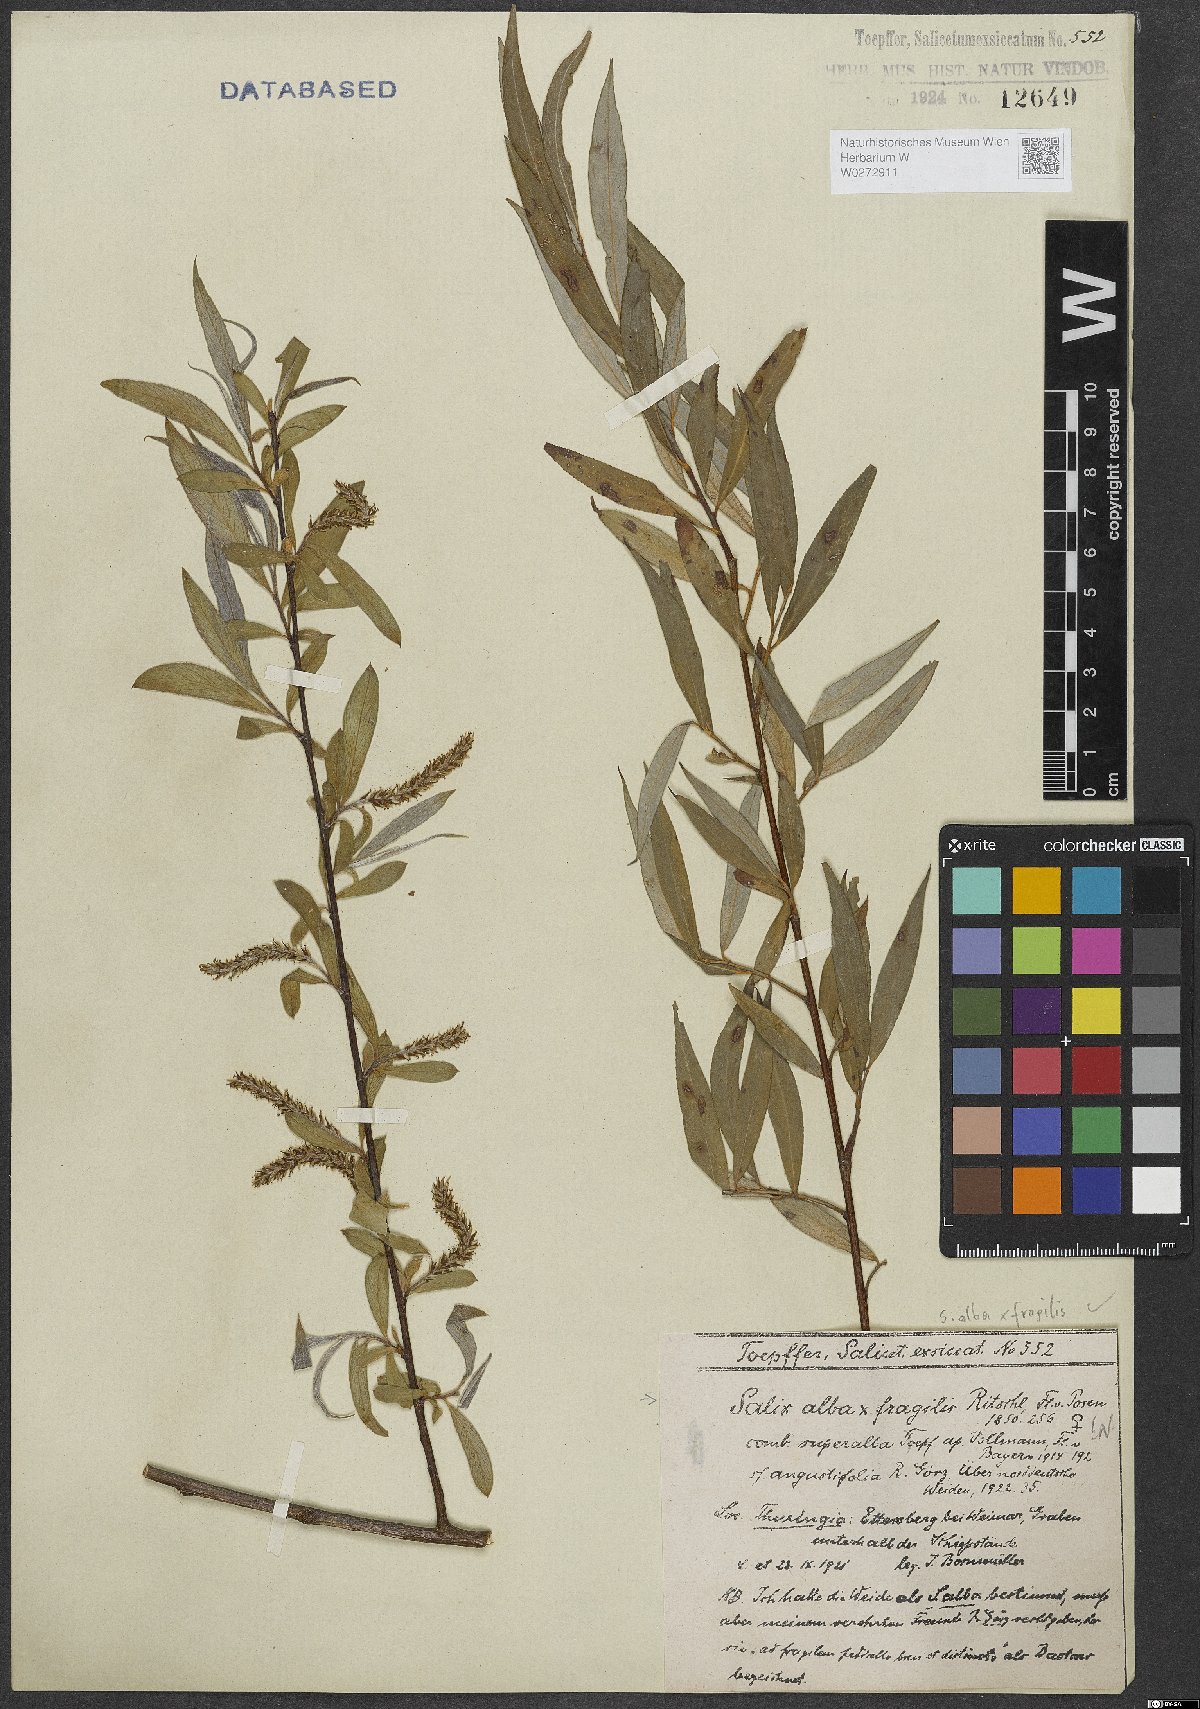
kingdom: Plantae
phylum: Tracheophyta
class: Magnoliopsida
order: Malpighiales
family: Salicaceae
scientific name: Salicaceae
